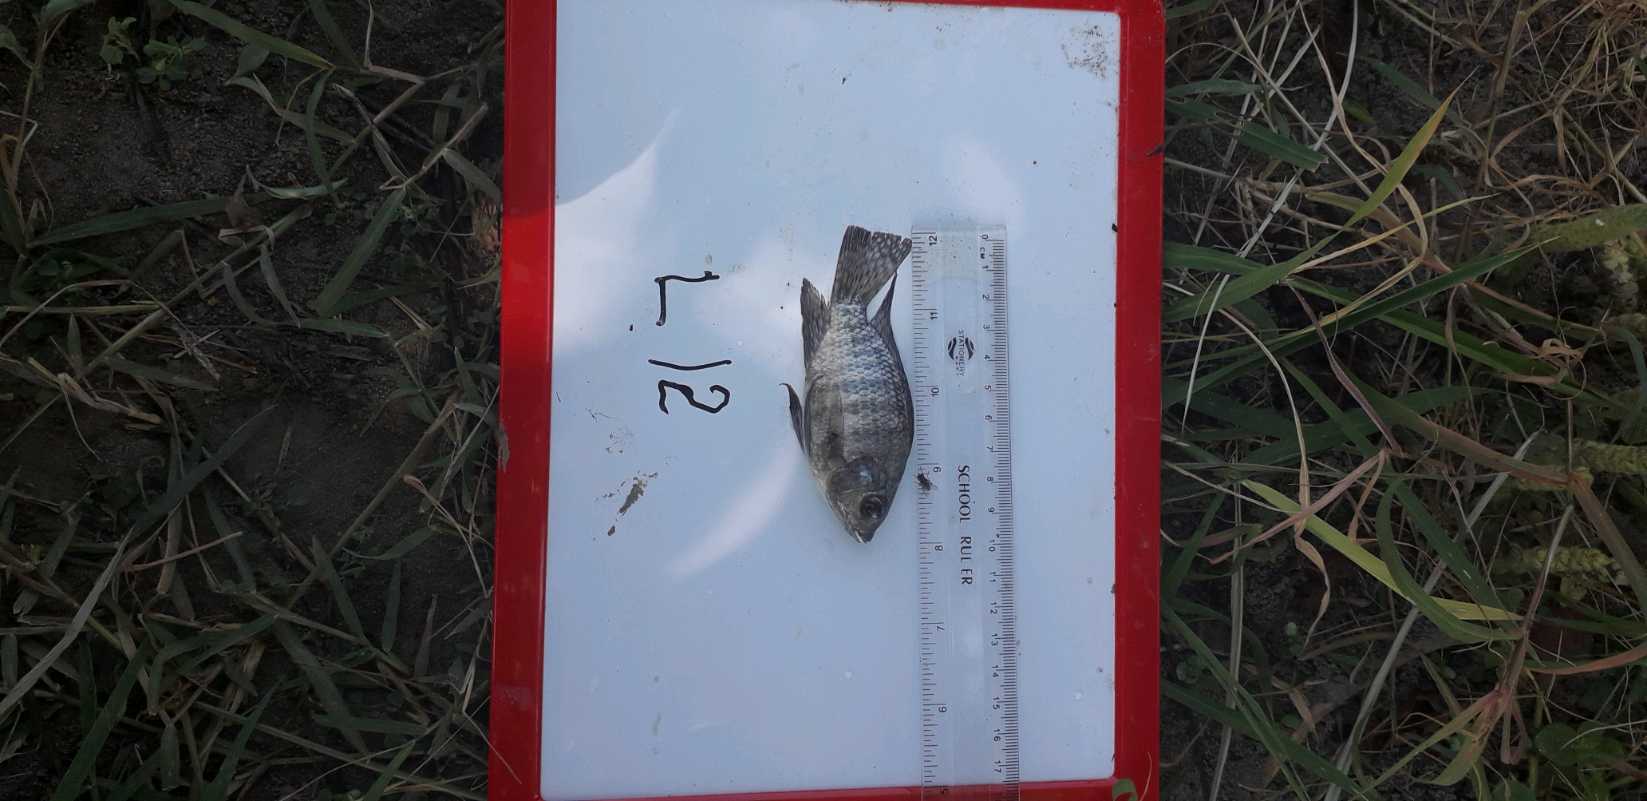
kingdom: Animalia
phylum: Chordata
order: Perciformes
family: Cichlidae
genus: Oreochromis
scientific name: Oreochromis leucostictus
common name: Blue spotted tilapia
